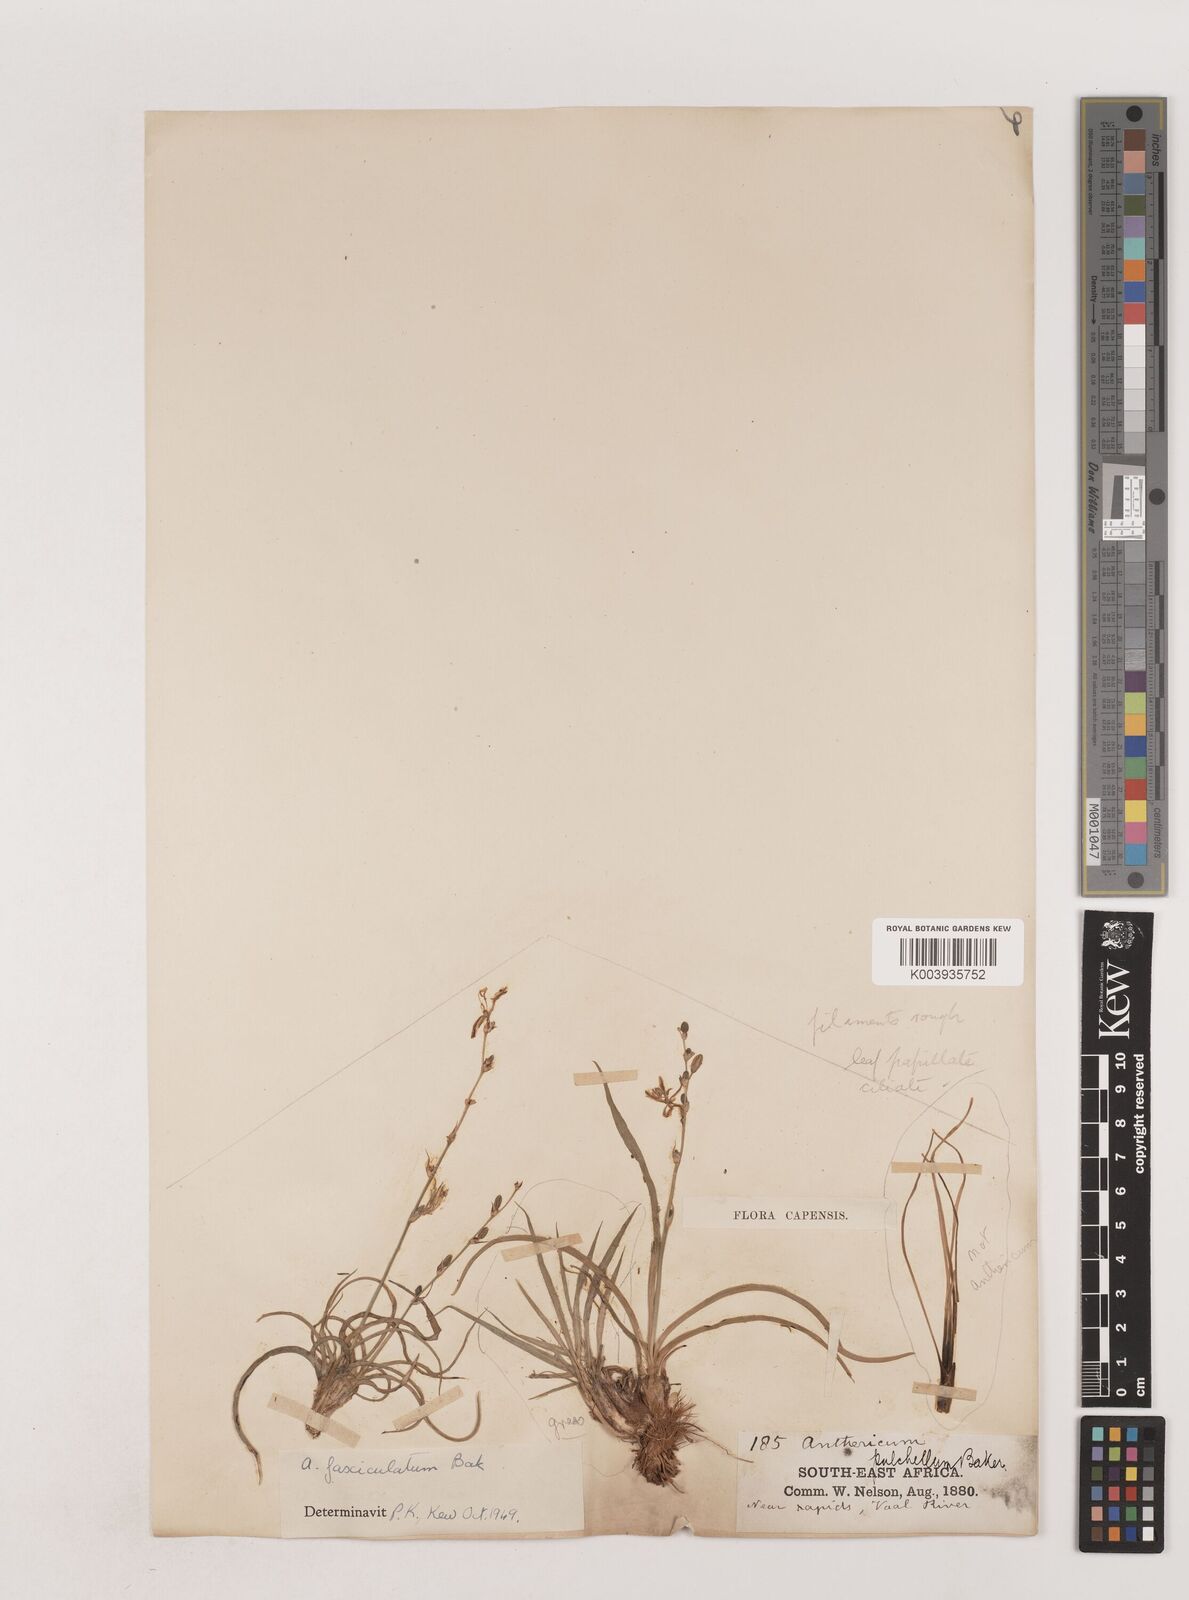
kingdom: Plantae
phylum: Tracheophyta
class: Liliopsida
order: Asparagales
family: Asparagaceae
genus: Chlorophytum
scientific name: Chlorophytum fasciculatum
